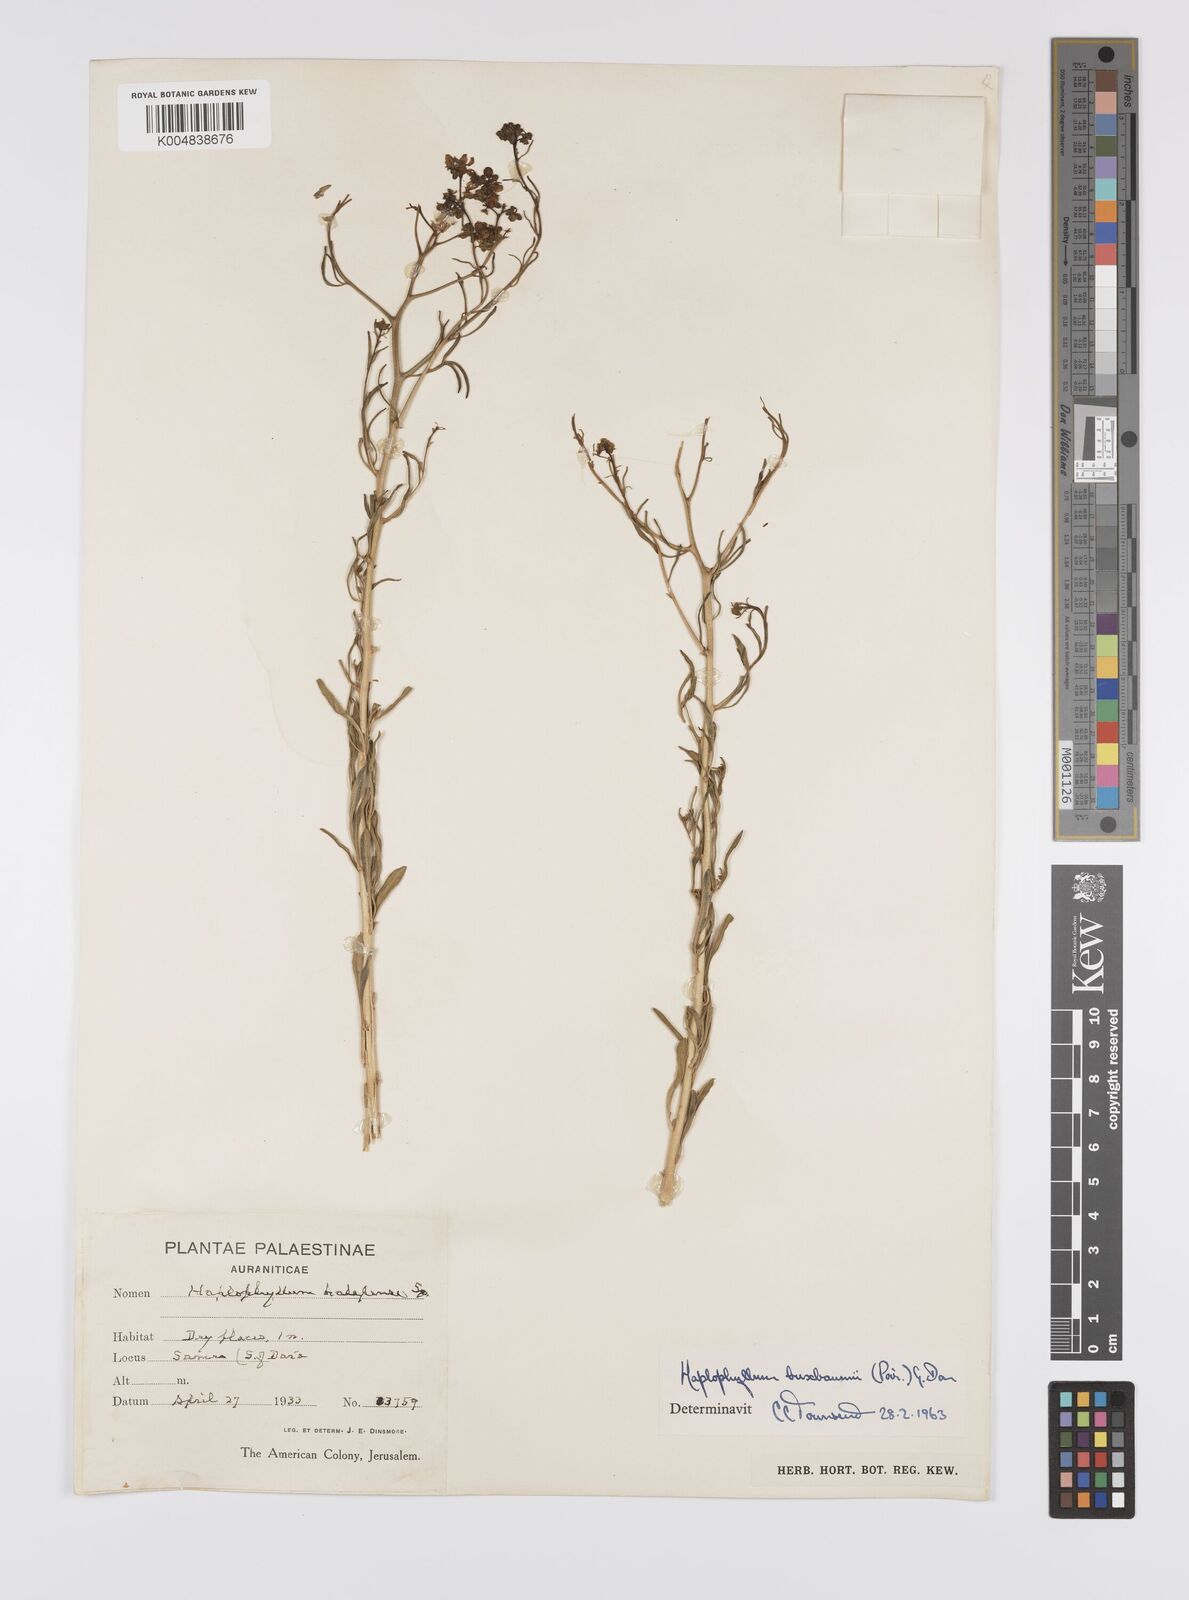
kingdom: Plantae
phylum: Tracheophyta
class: Magnoliopsida
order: Sapindales
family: Rutaceae
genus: Haplophyllum
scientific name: Haplophyllum
